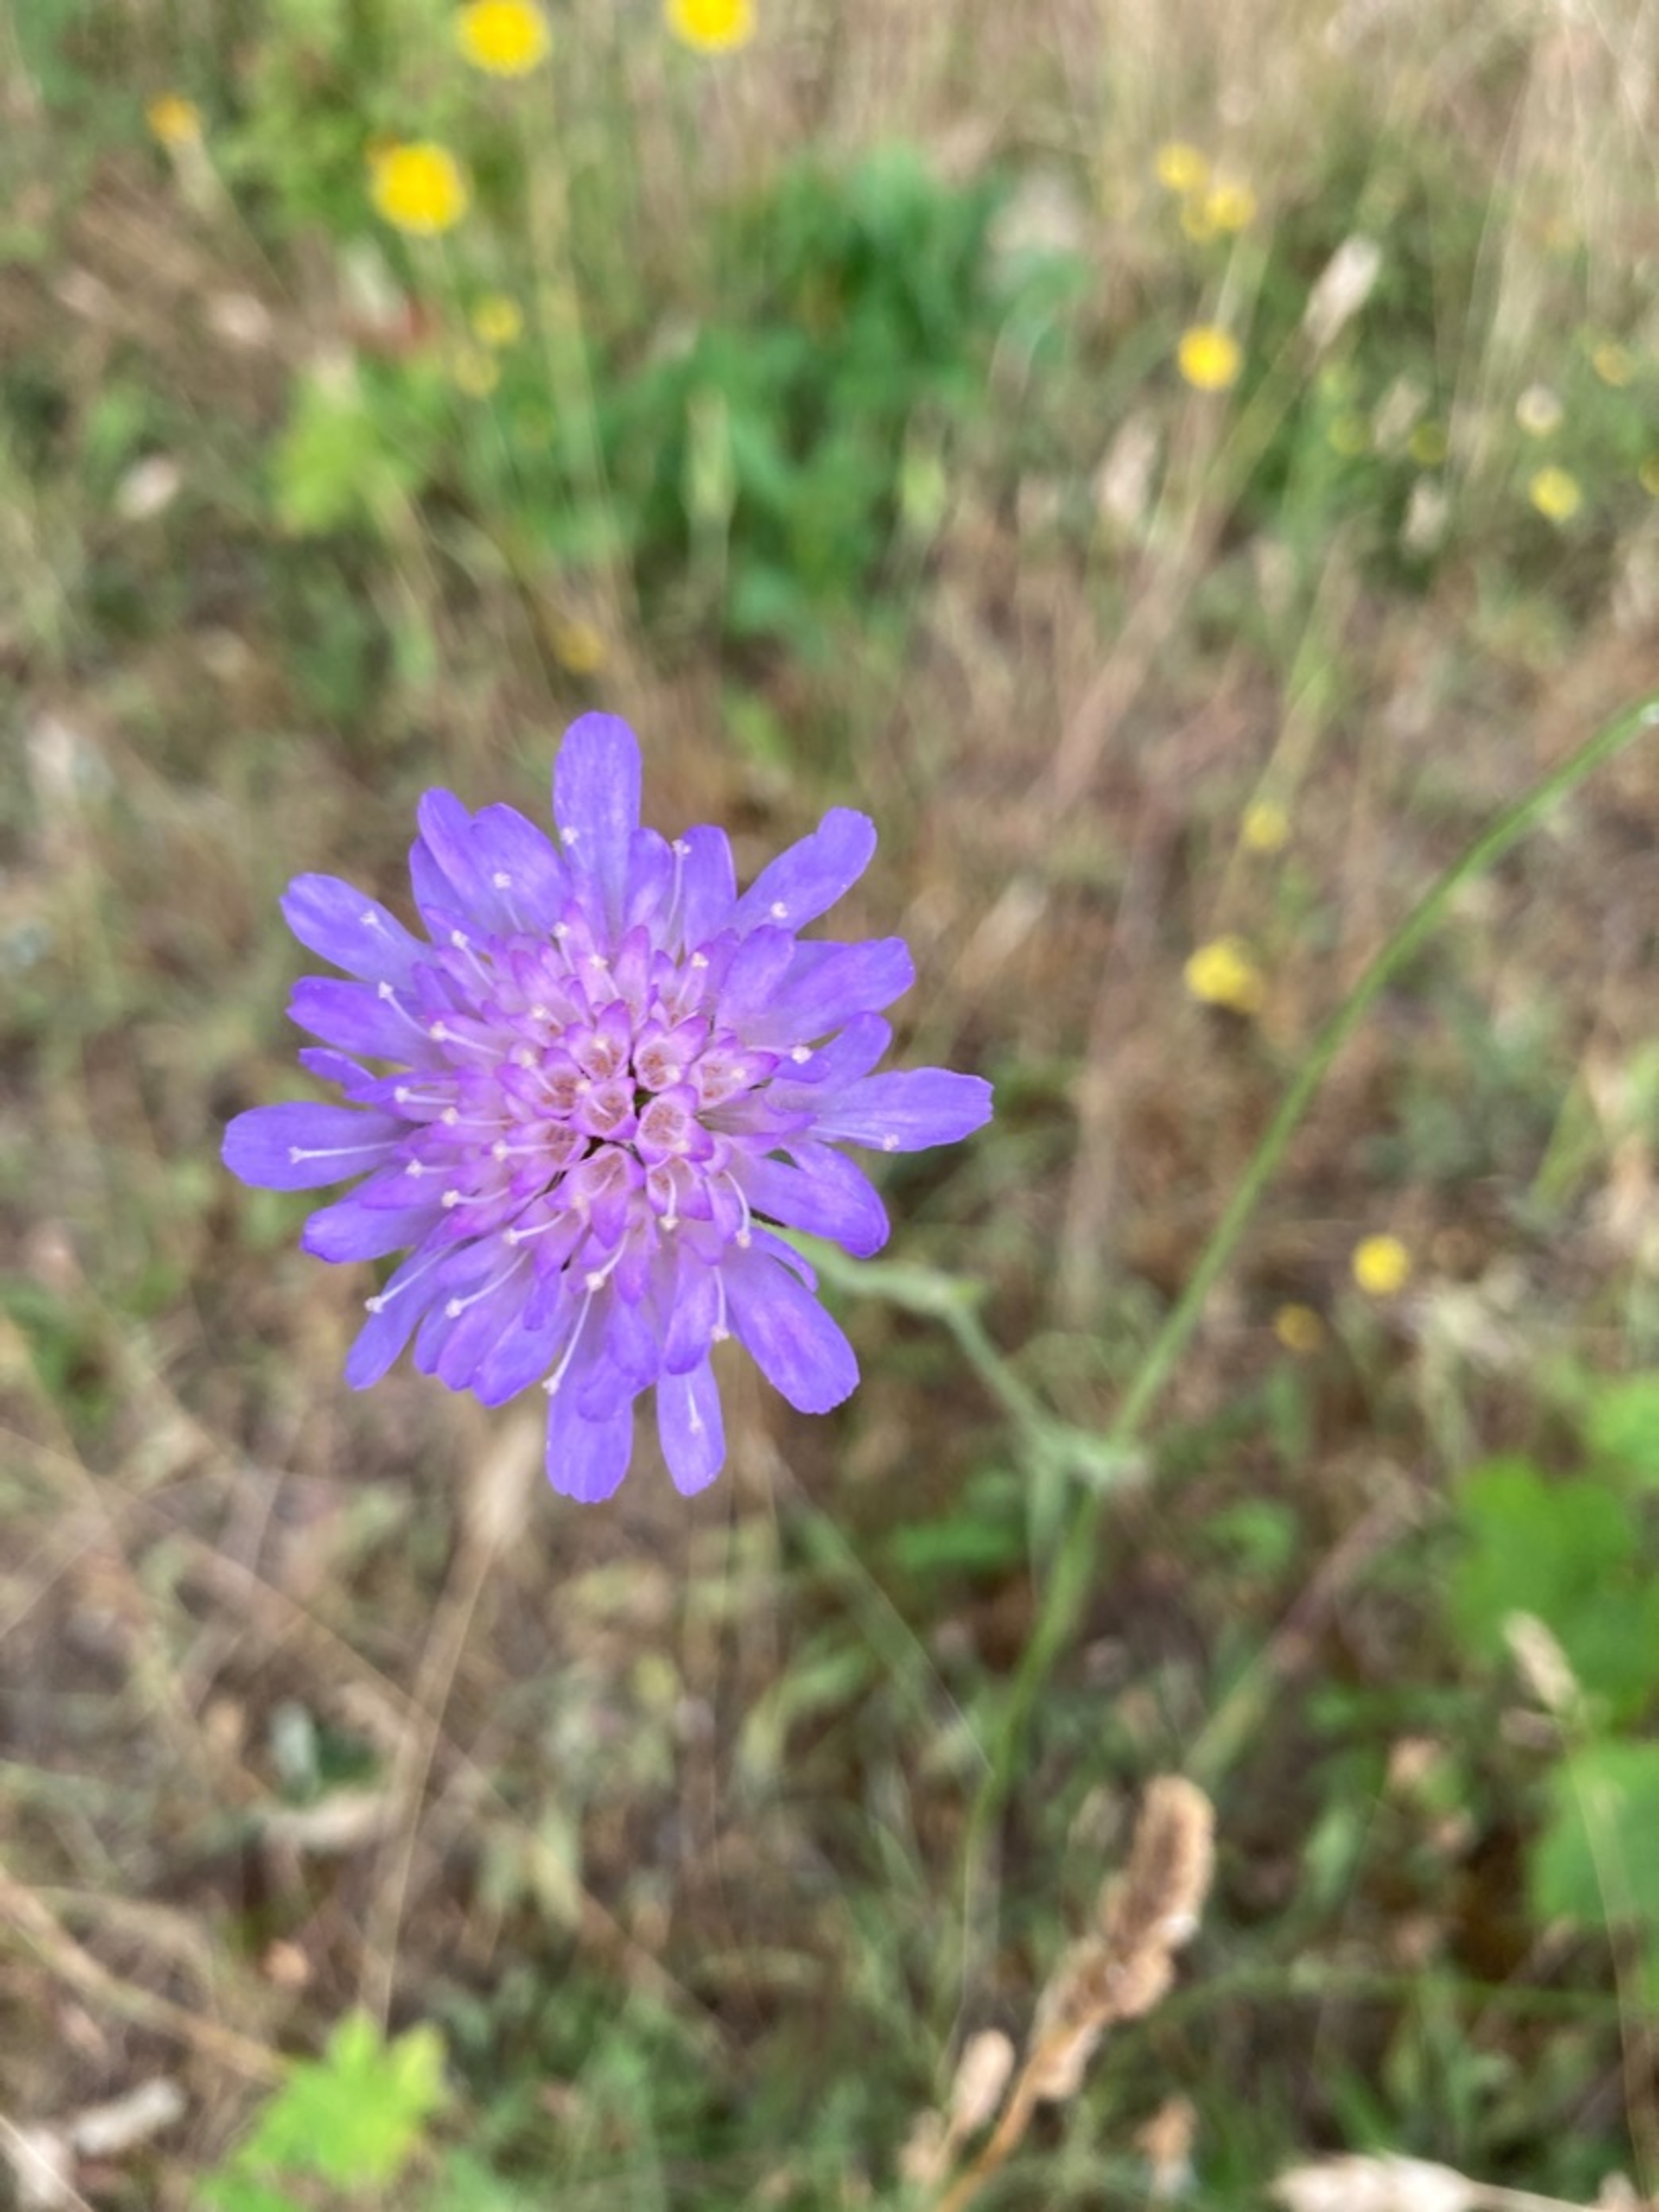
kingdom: Plantae
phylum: Tracheophyta
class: Magnoliopsida
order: Dipsacales
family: Caprifoliaceae
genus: Knautia
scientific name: Knautia arvensis
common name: Blåhat
